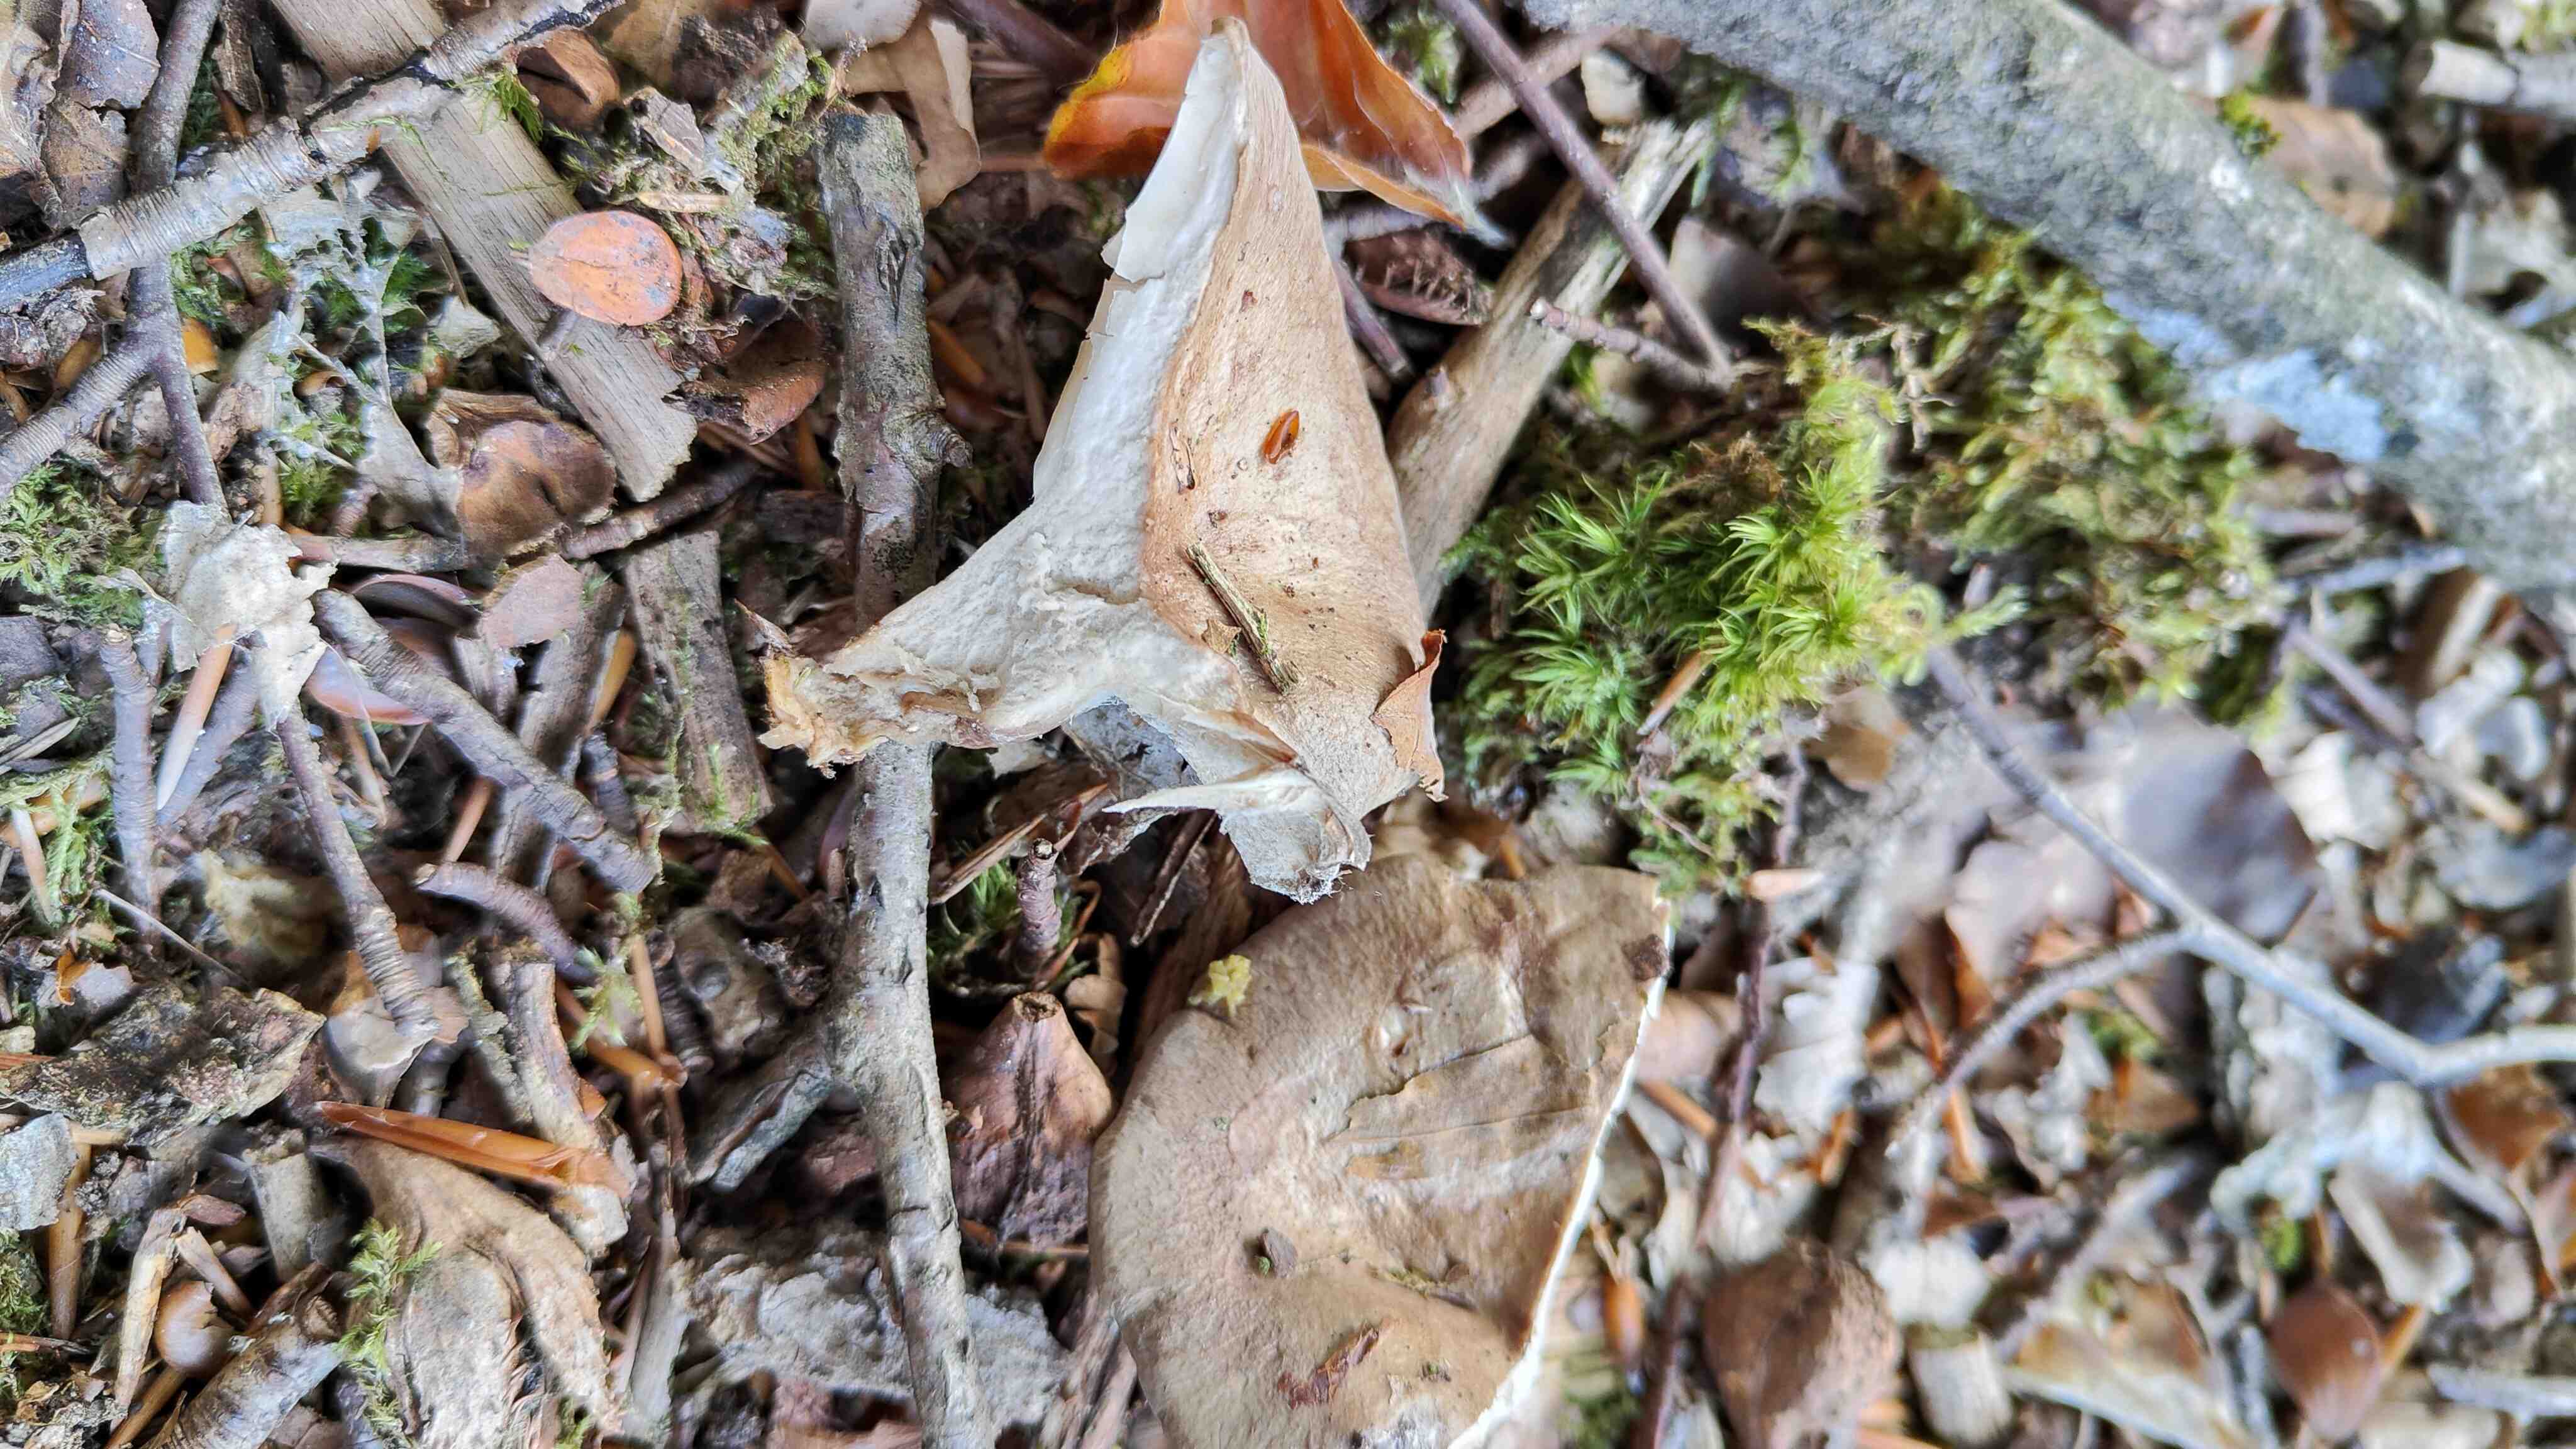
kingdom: Fungi
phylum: Basidiomycota
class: Agaricomycetes
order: Russulales
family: Russulaceae
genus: Lactarius
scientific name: Lactarius blennius
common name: dråbeplettet mælkehat
